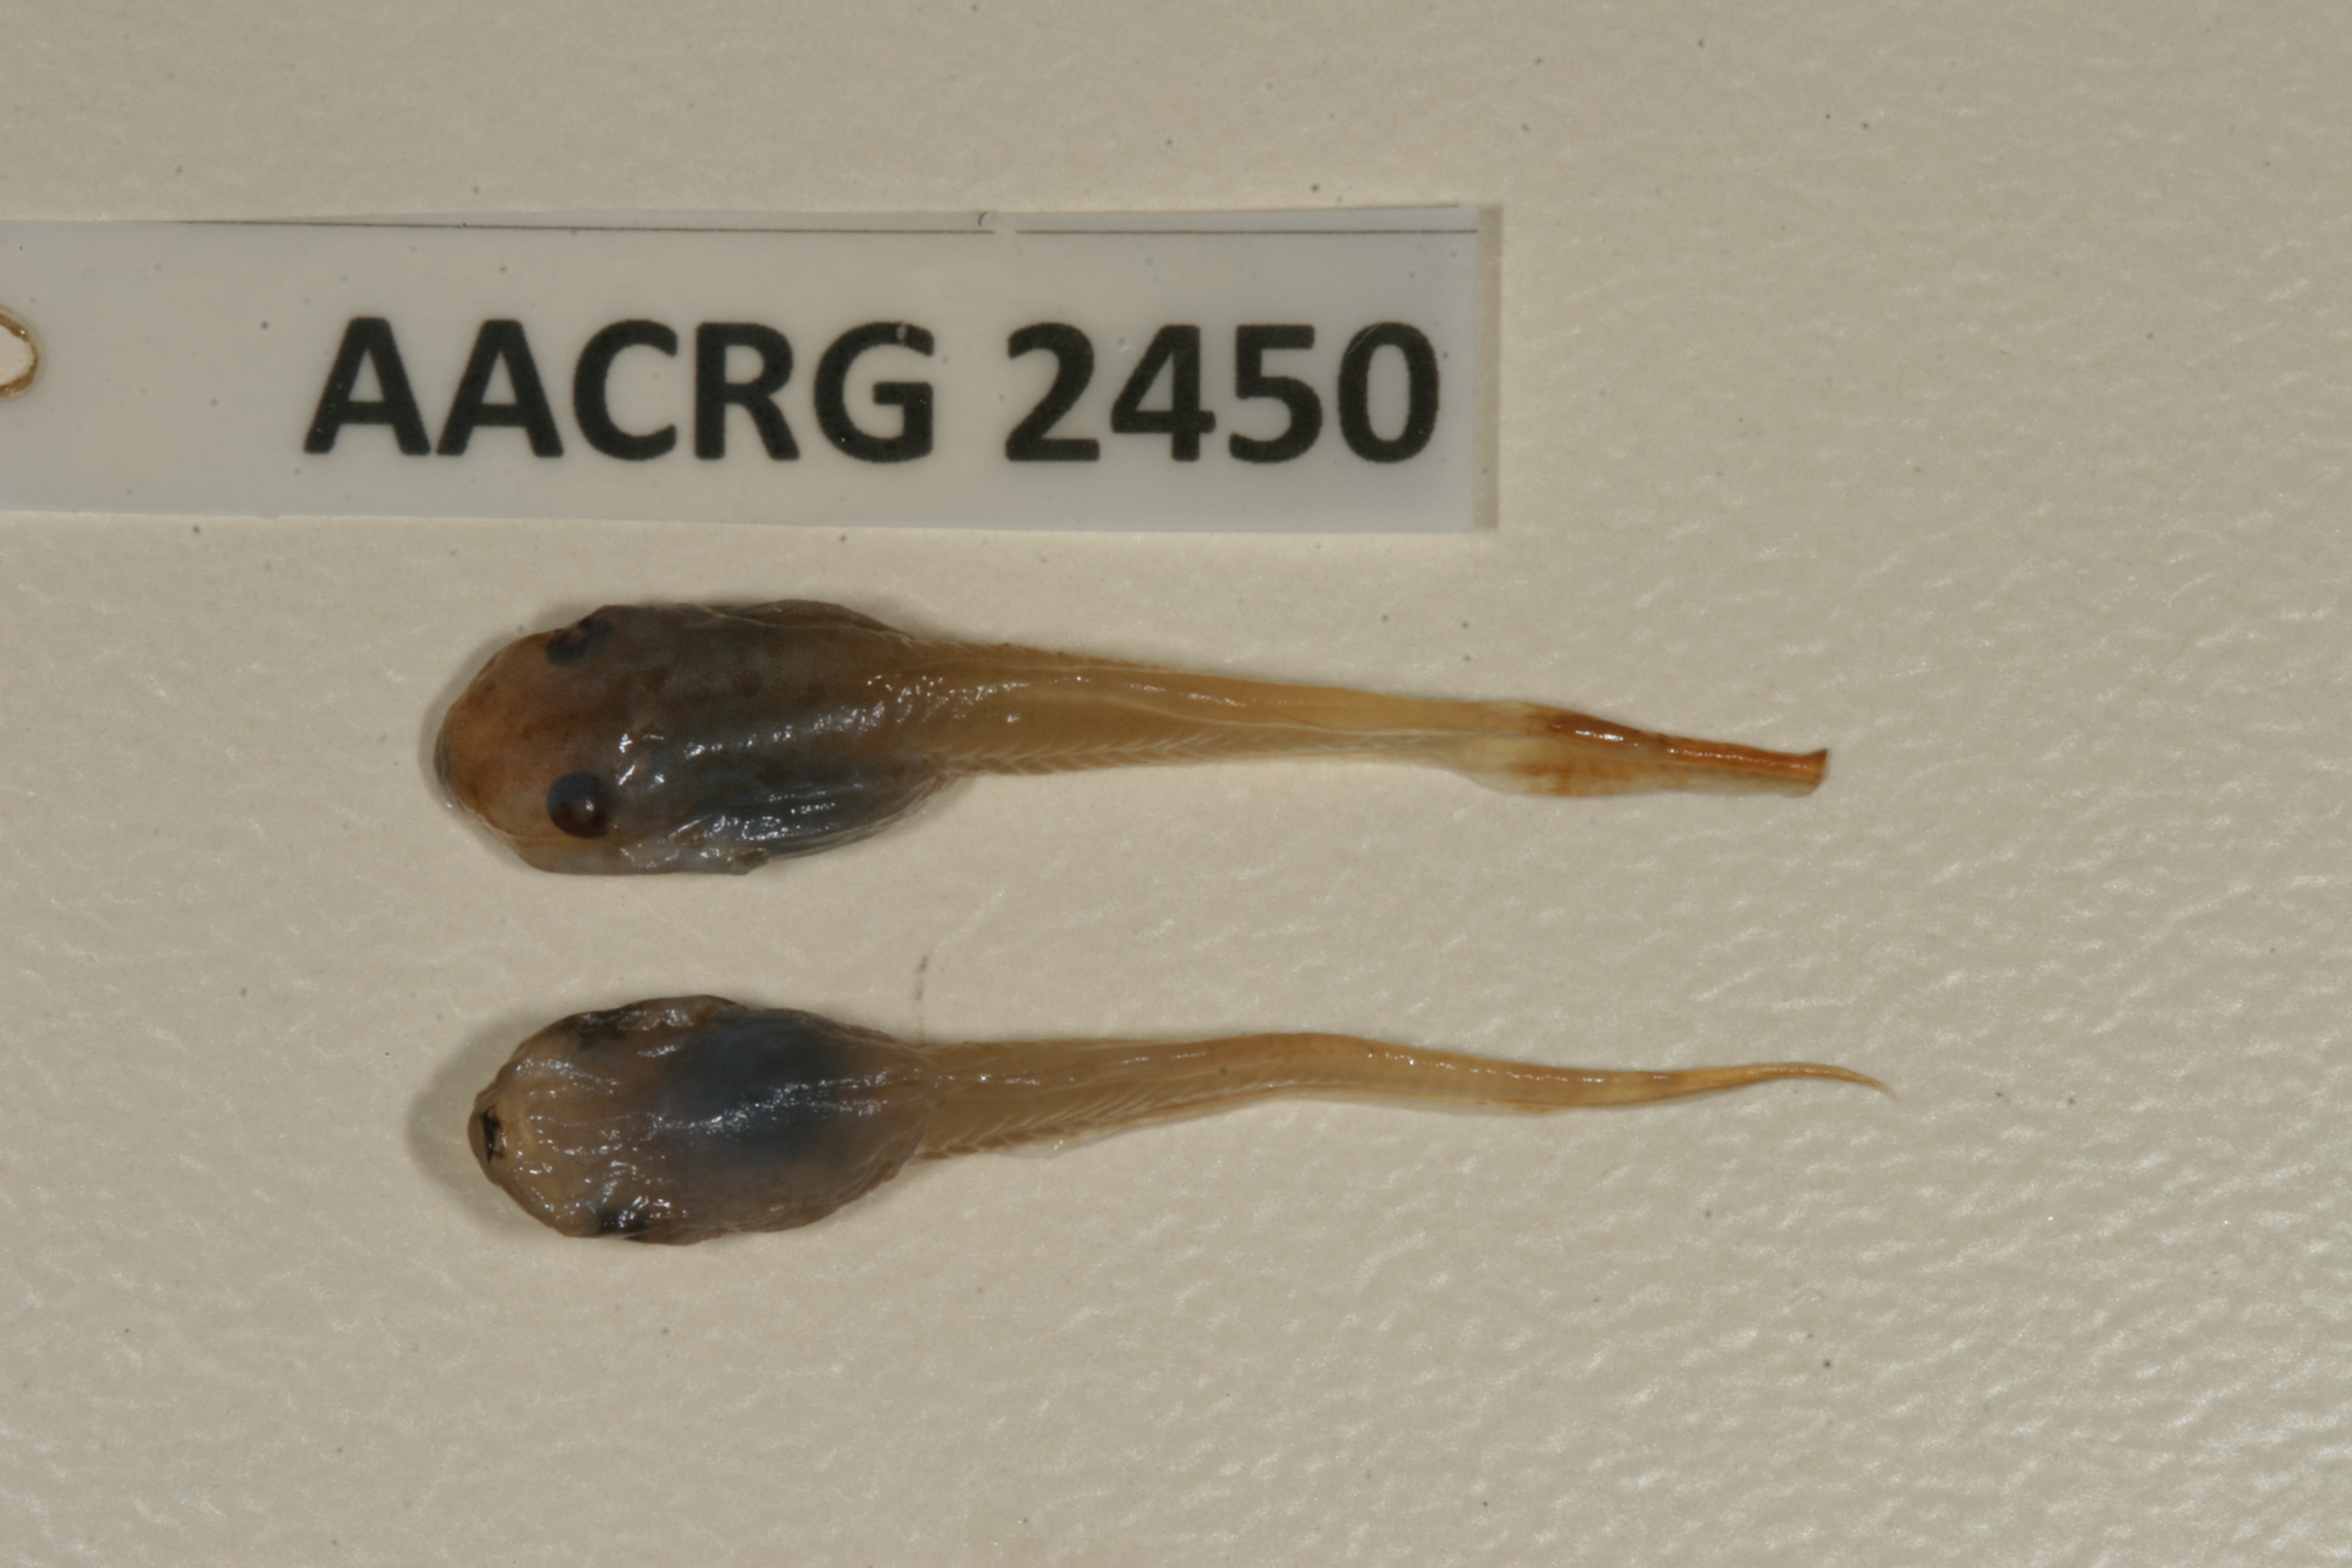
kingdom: Animalia
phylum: Chordata
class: Amphibia
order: Anura
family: Hyperoliidae
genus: Hyperolius
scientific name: Hyperolius marmoratus
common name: Painted reed frog
